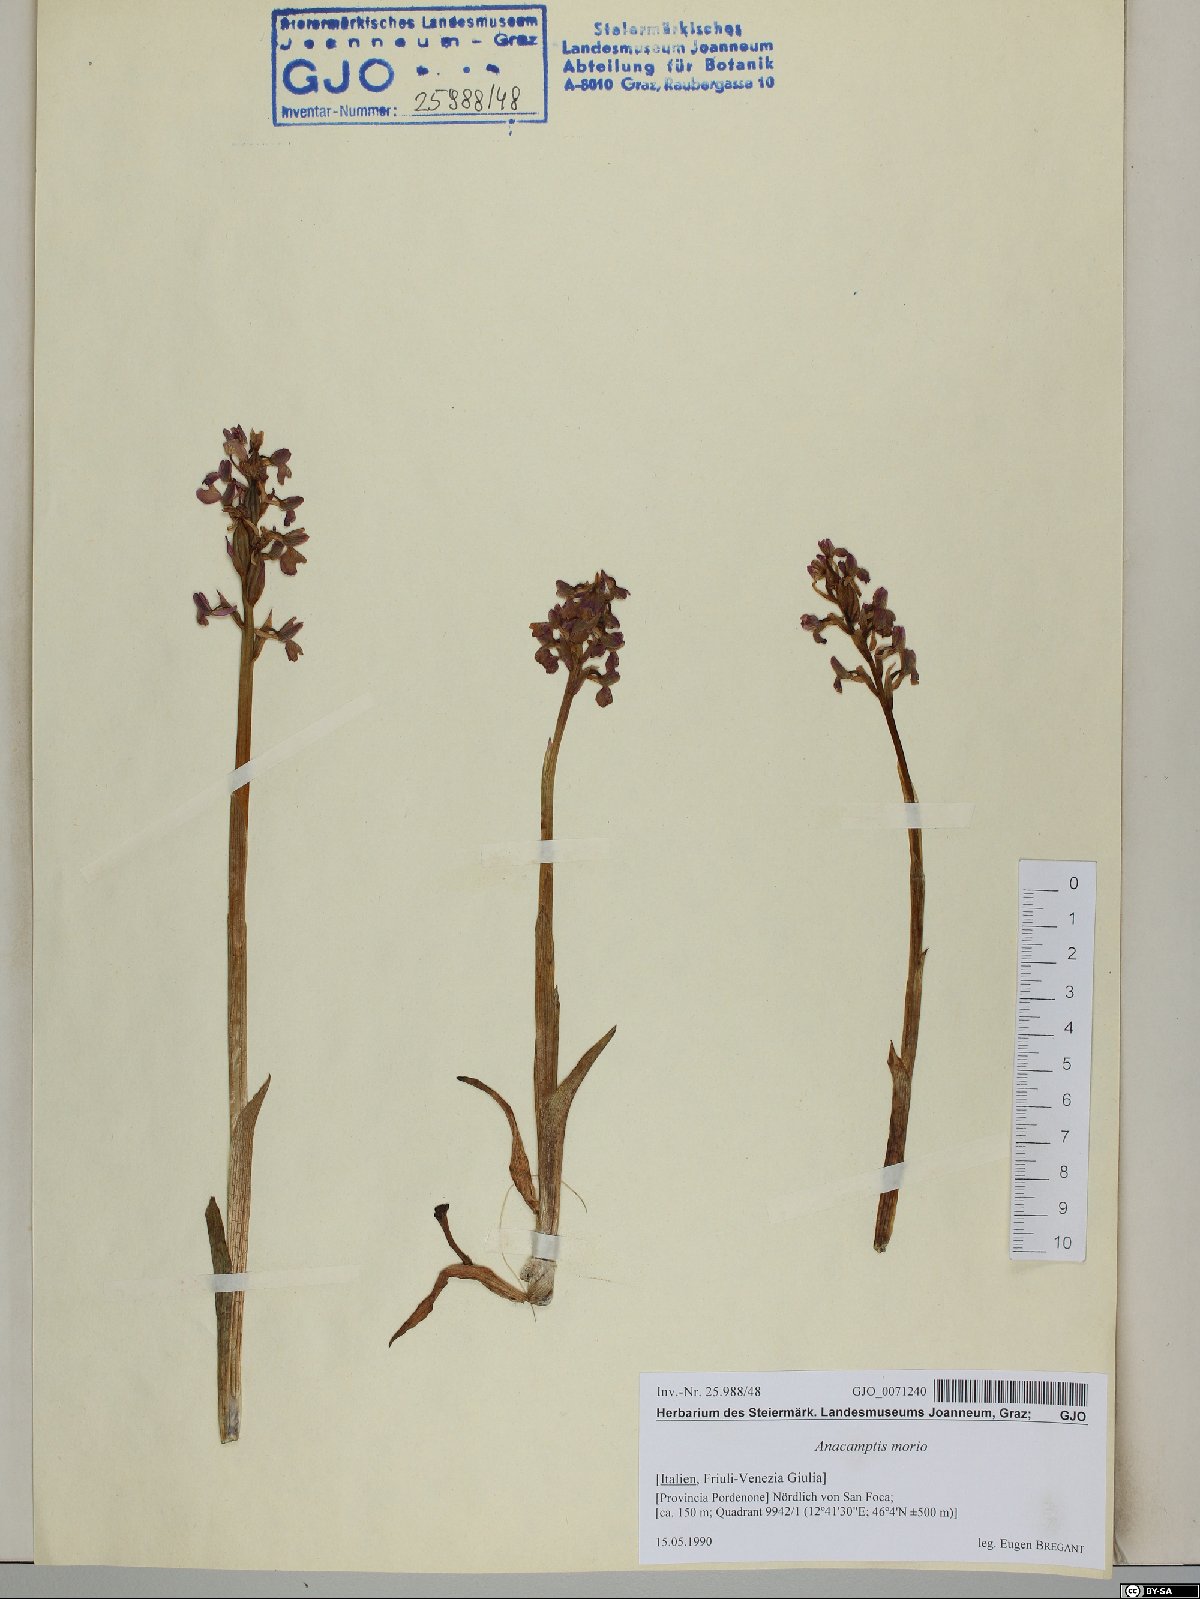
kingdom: Plantae
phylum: Tracheophyta
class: Liliopsida
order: Asparagales
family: Orchidaceae
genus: Anacamptis
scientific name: Anacamptis morio
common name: Green-winged orchid
